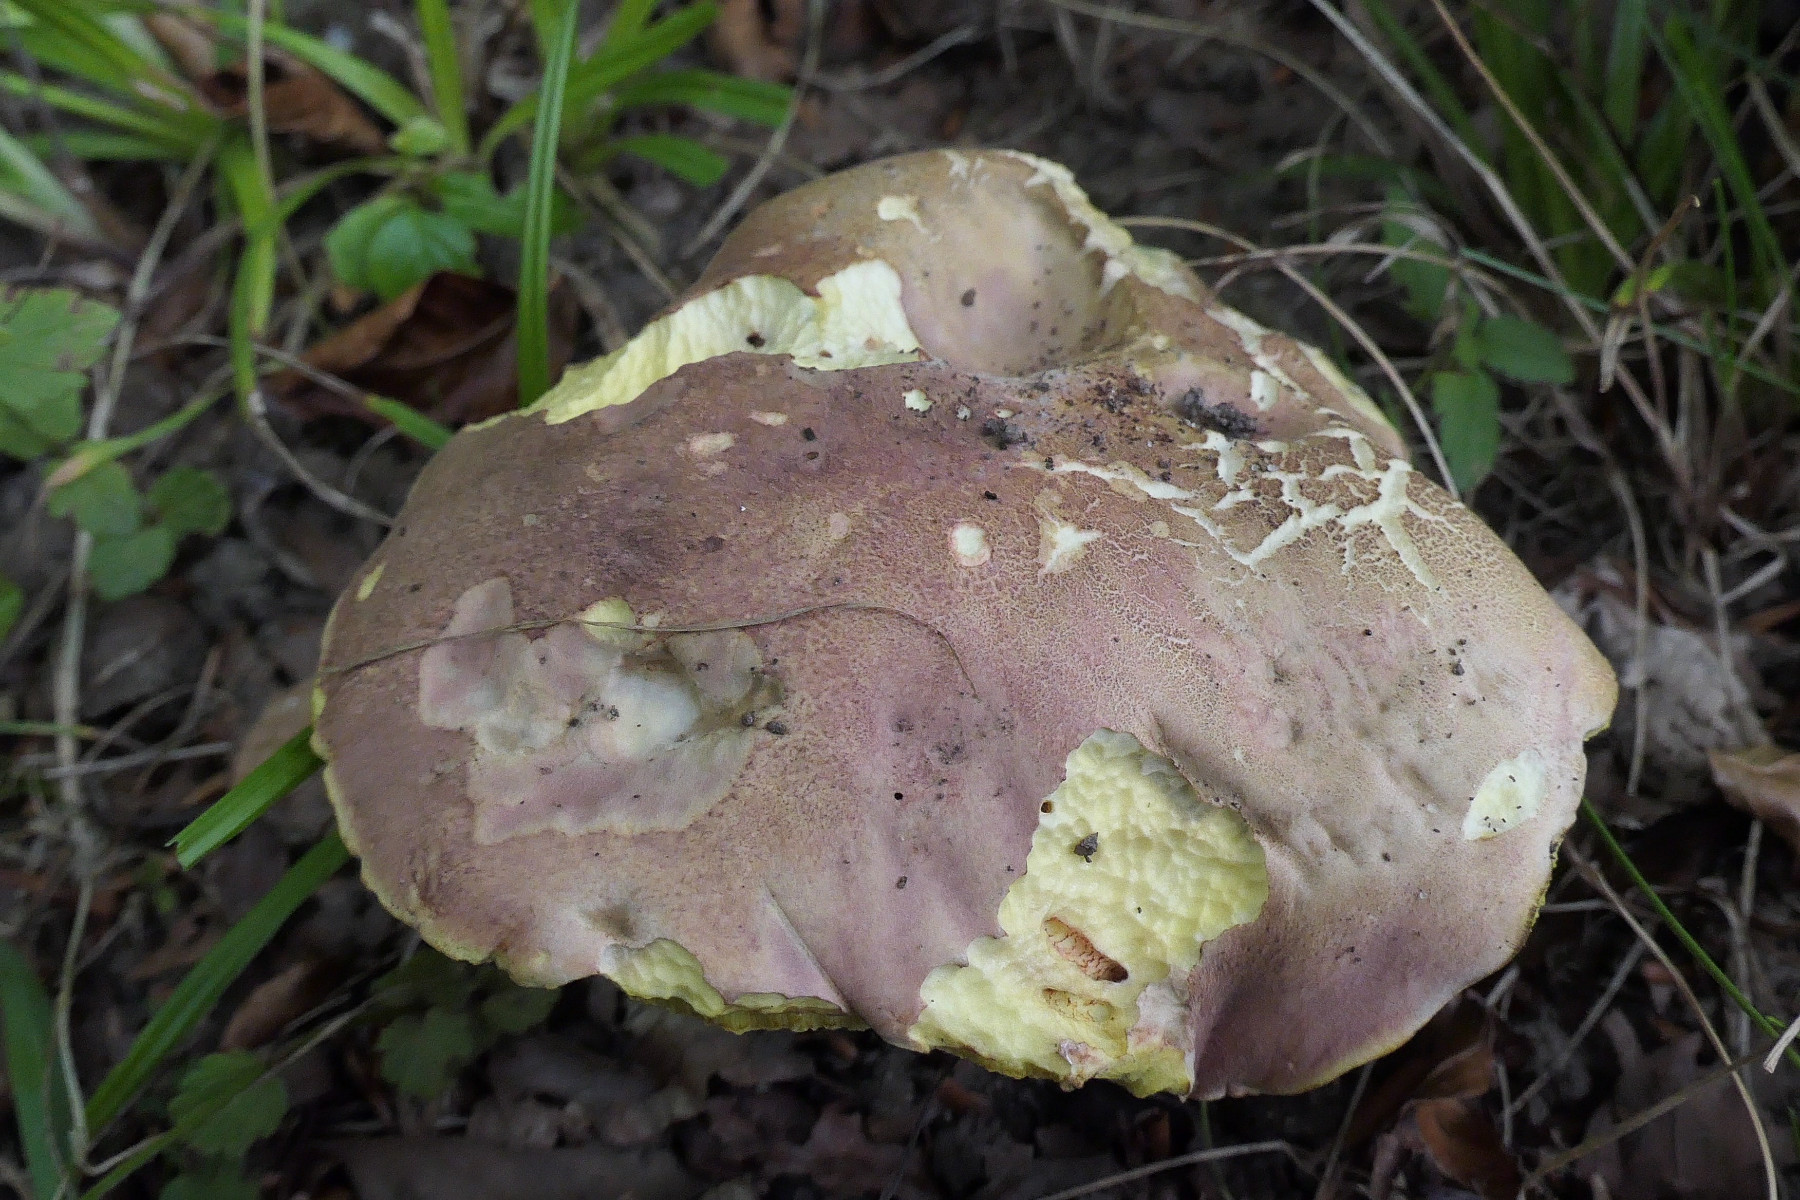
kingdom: Fungi
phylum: Basidiomycota
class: Agaricomycetes
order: Boletales
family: Boletaceae
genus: Butyriboletus
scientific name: Butyriboletus fuscoroseus
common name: brunrosa rørhat
